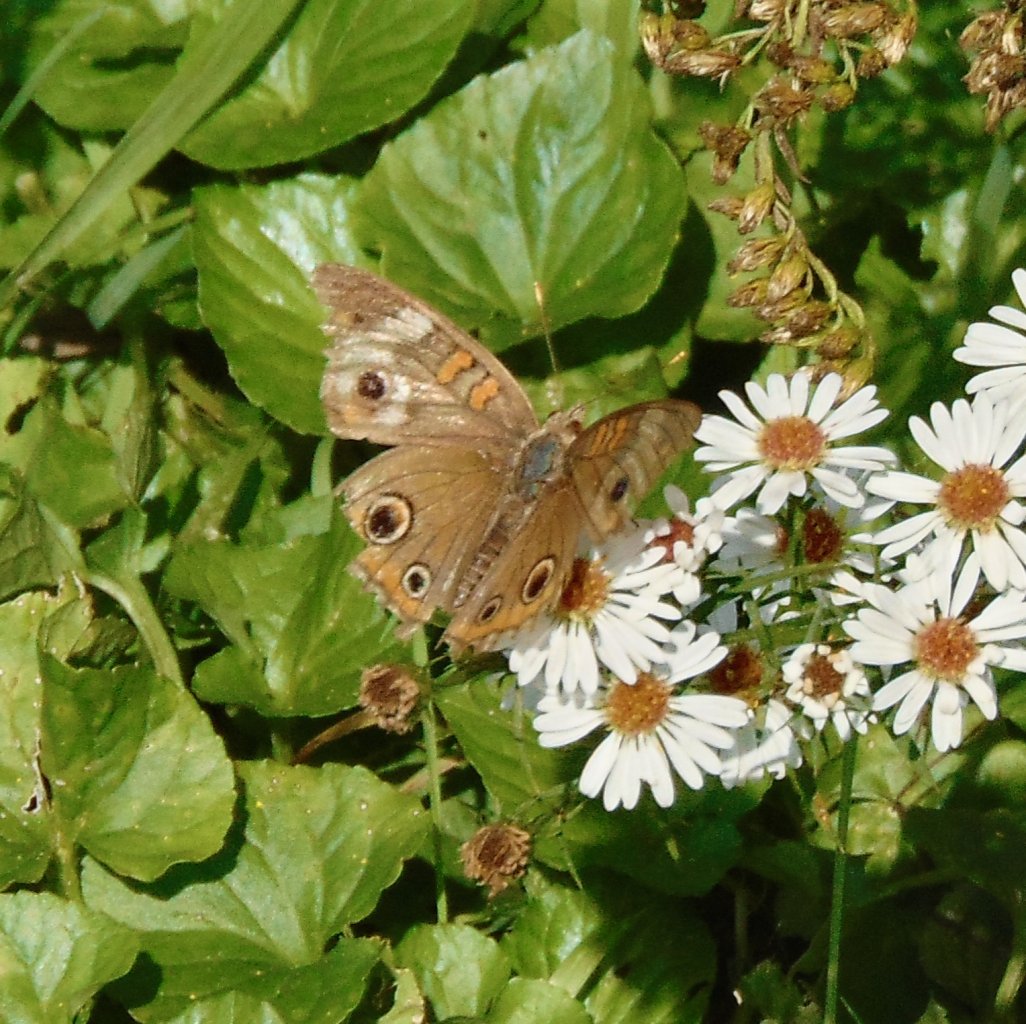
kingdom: Animalia
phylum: Arthropoda
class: Insecta
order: Lepidoptera
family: Nymphalidae
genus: Junonia
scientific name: Junonia coenia
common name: Common Buckeye
